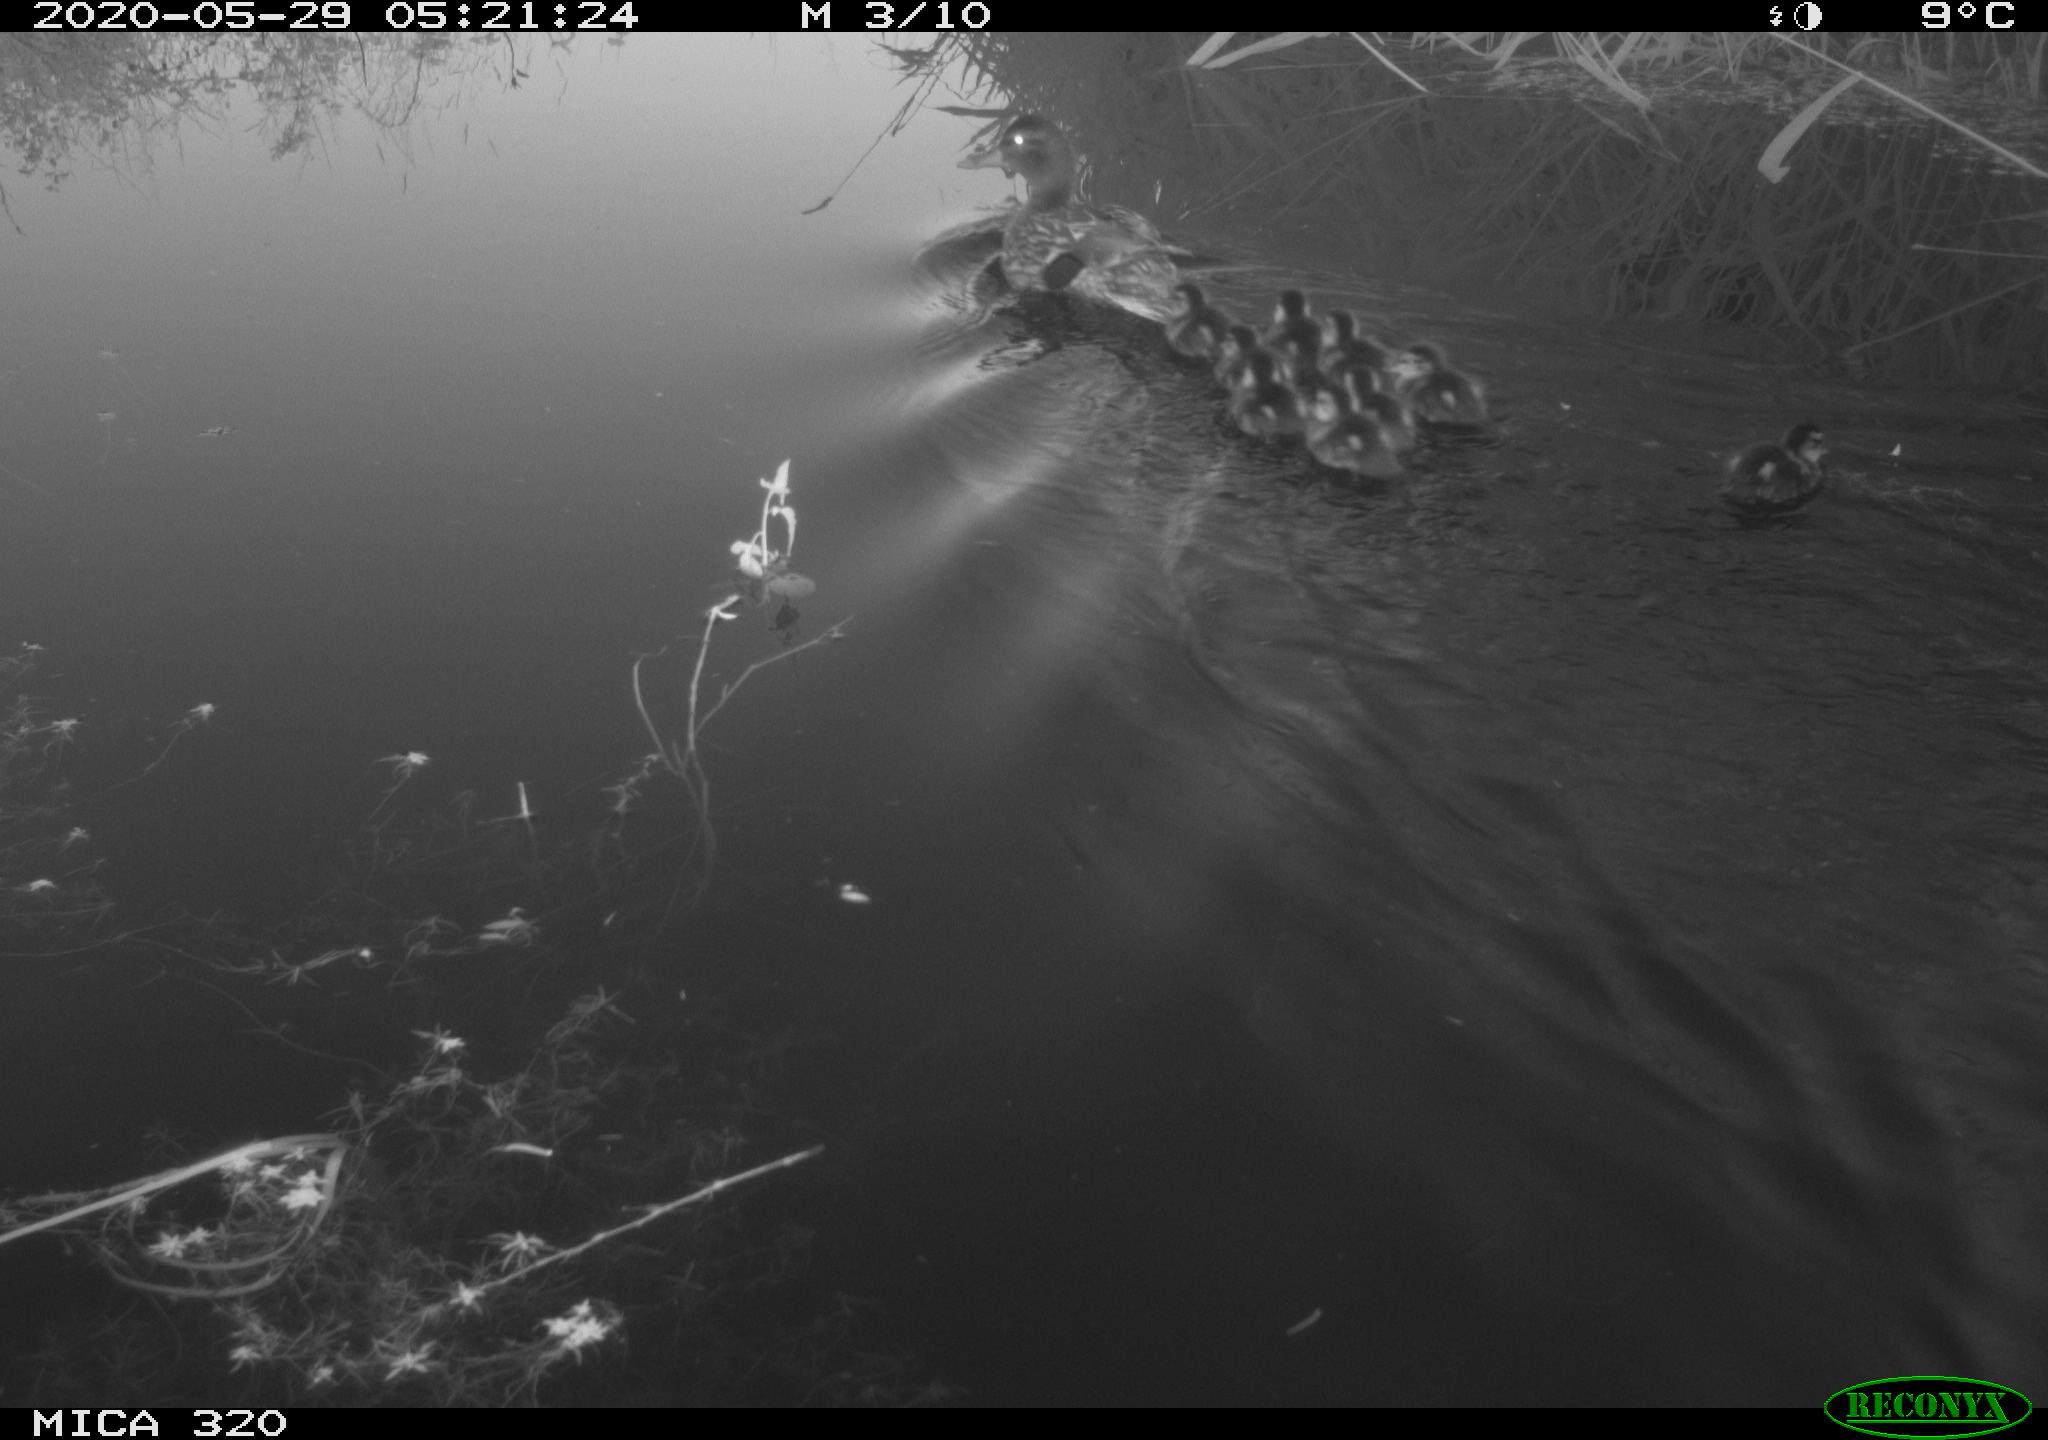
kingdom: Animalia
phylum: Chordata
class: Aves
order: Anseriformes
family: Anatidae
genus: Anas
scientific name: Anas platyrhynchos
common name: Mallard
